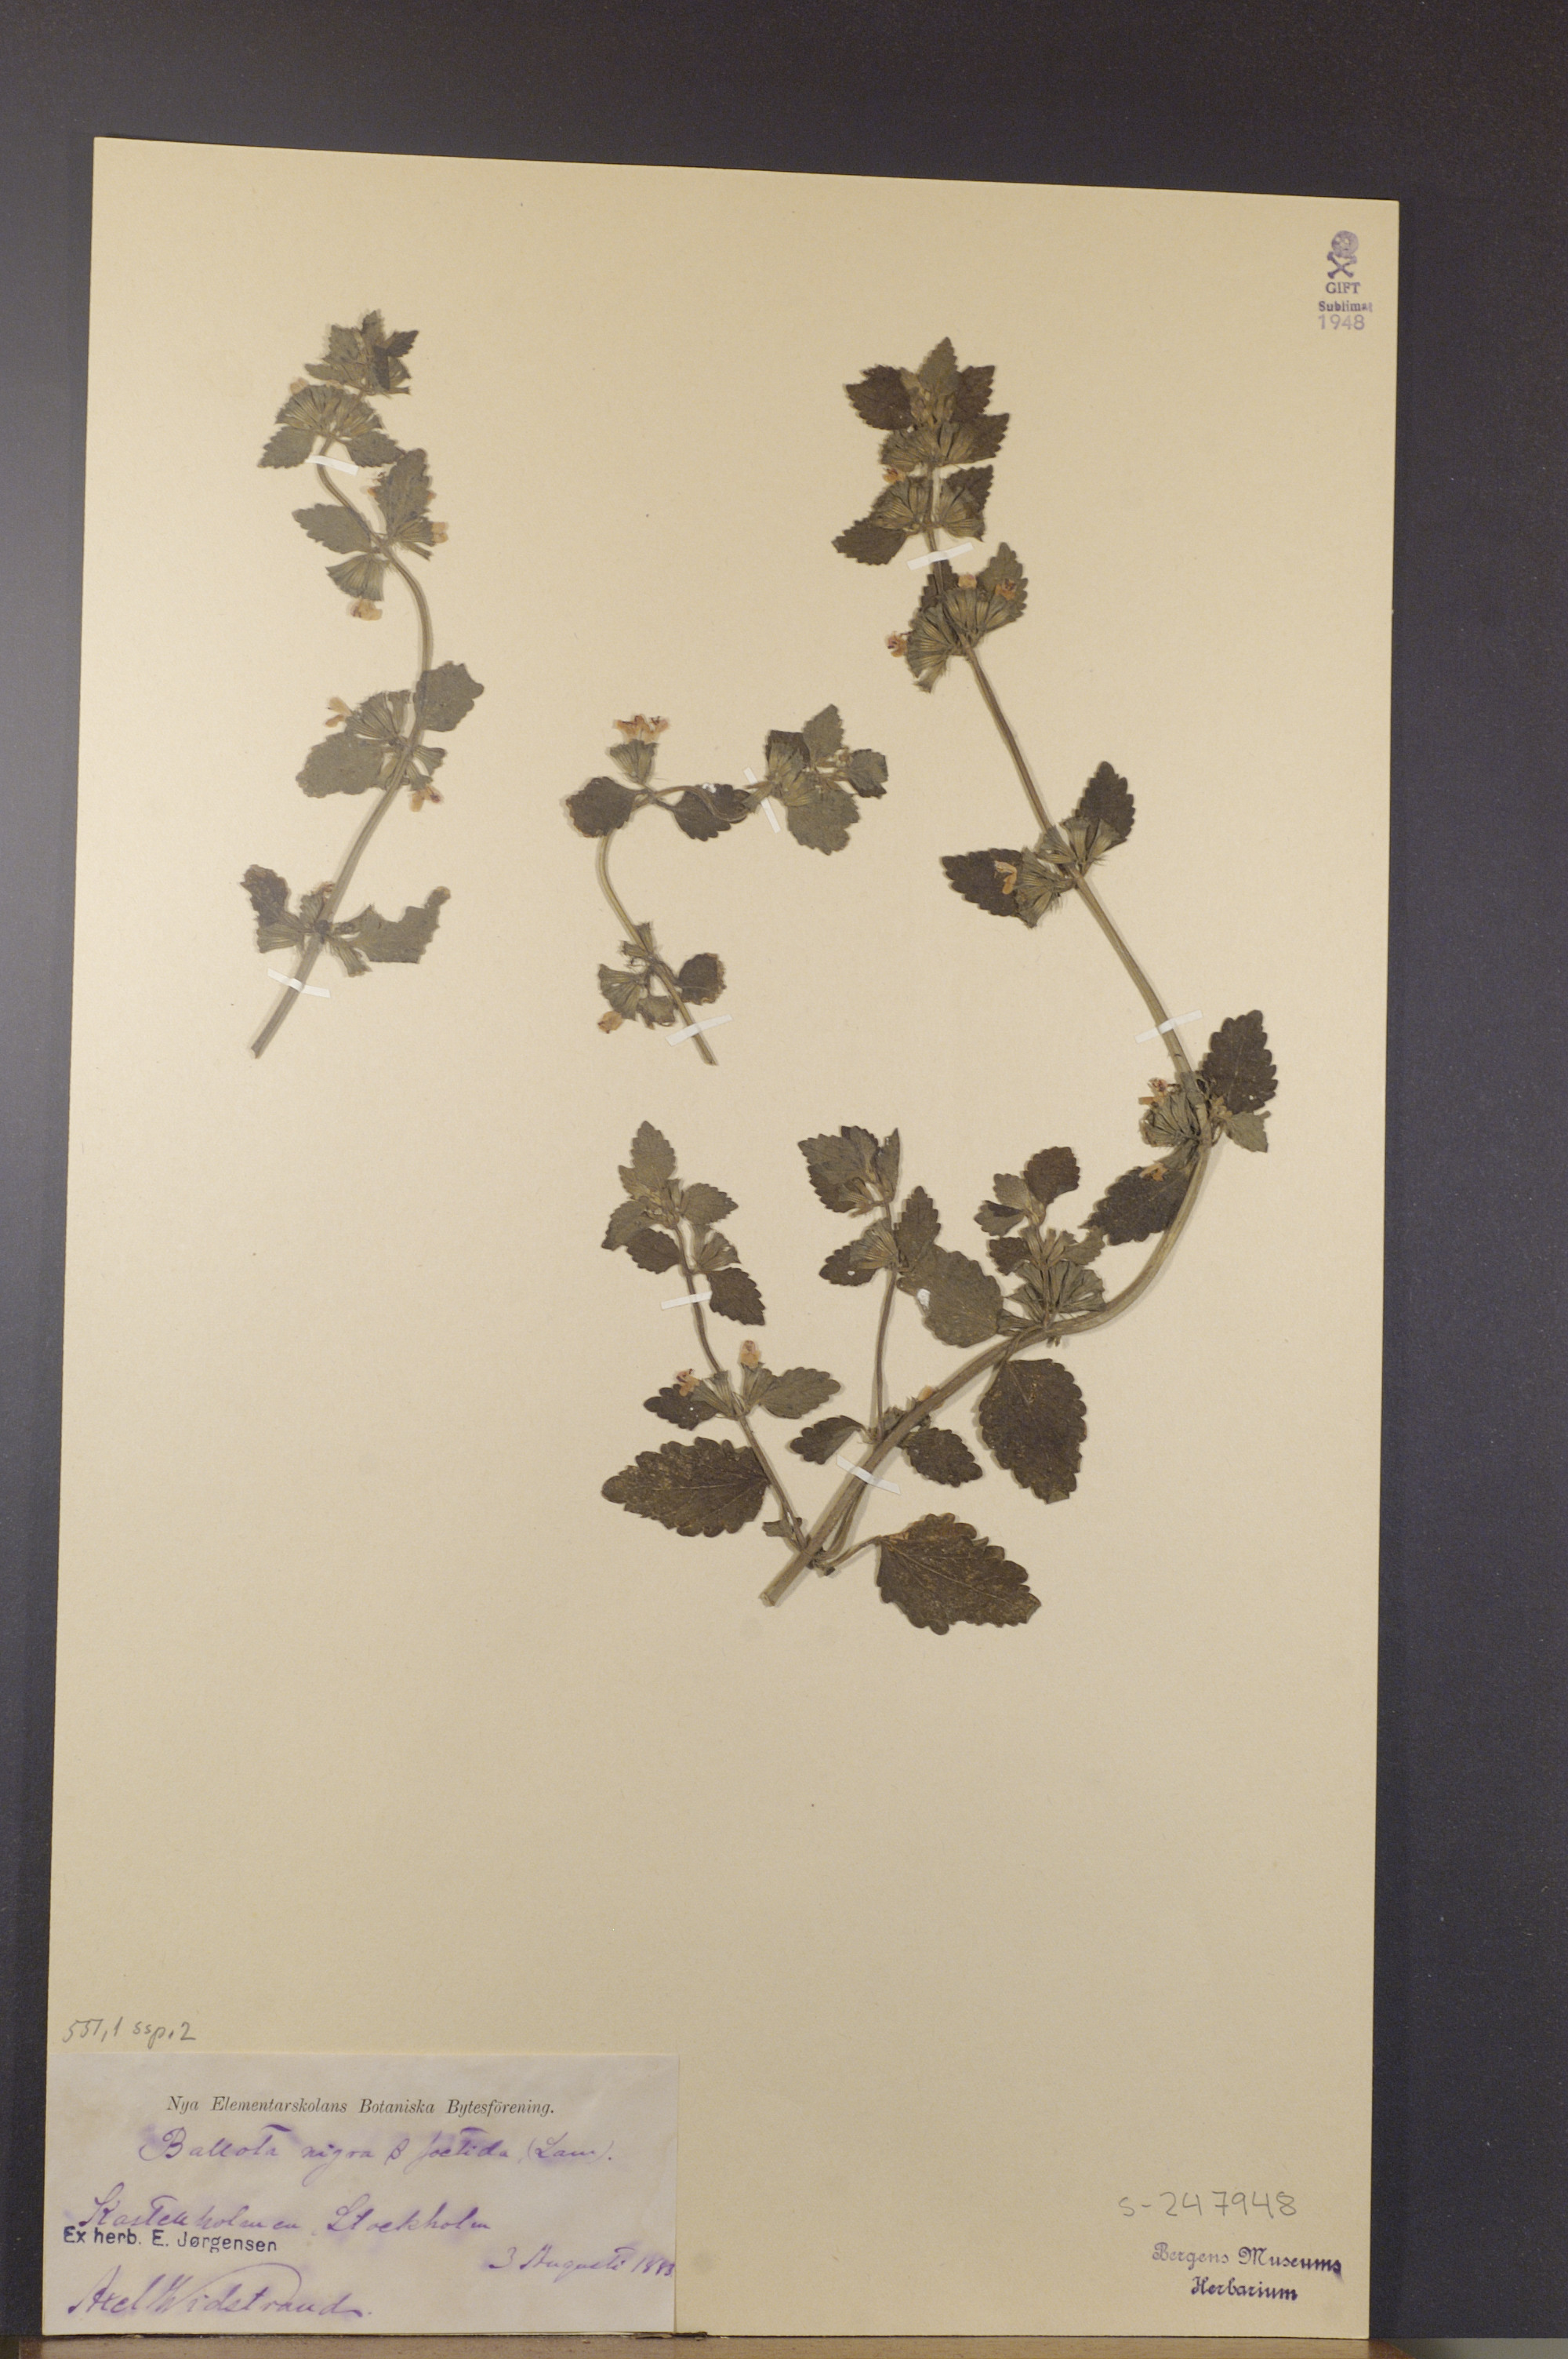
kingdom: Plantae
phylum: Tracheophyta
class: Magnoliopsida
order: Lamiales
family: Lamiaceae
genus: Ballota
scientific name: Ballota nigra
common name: Black horehound
